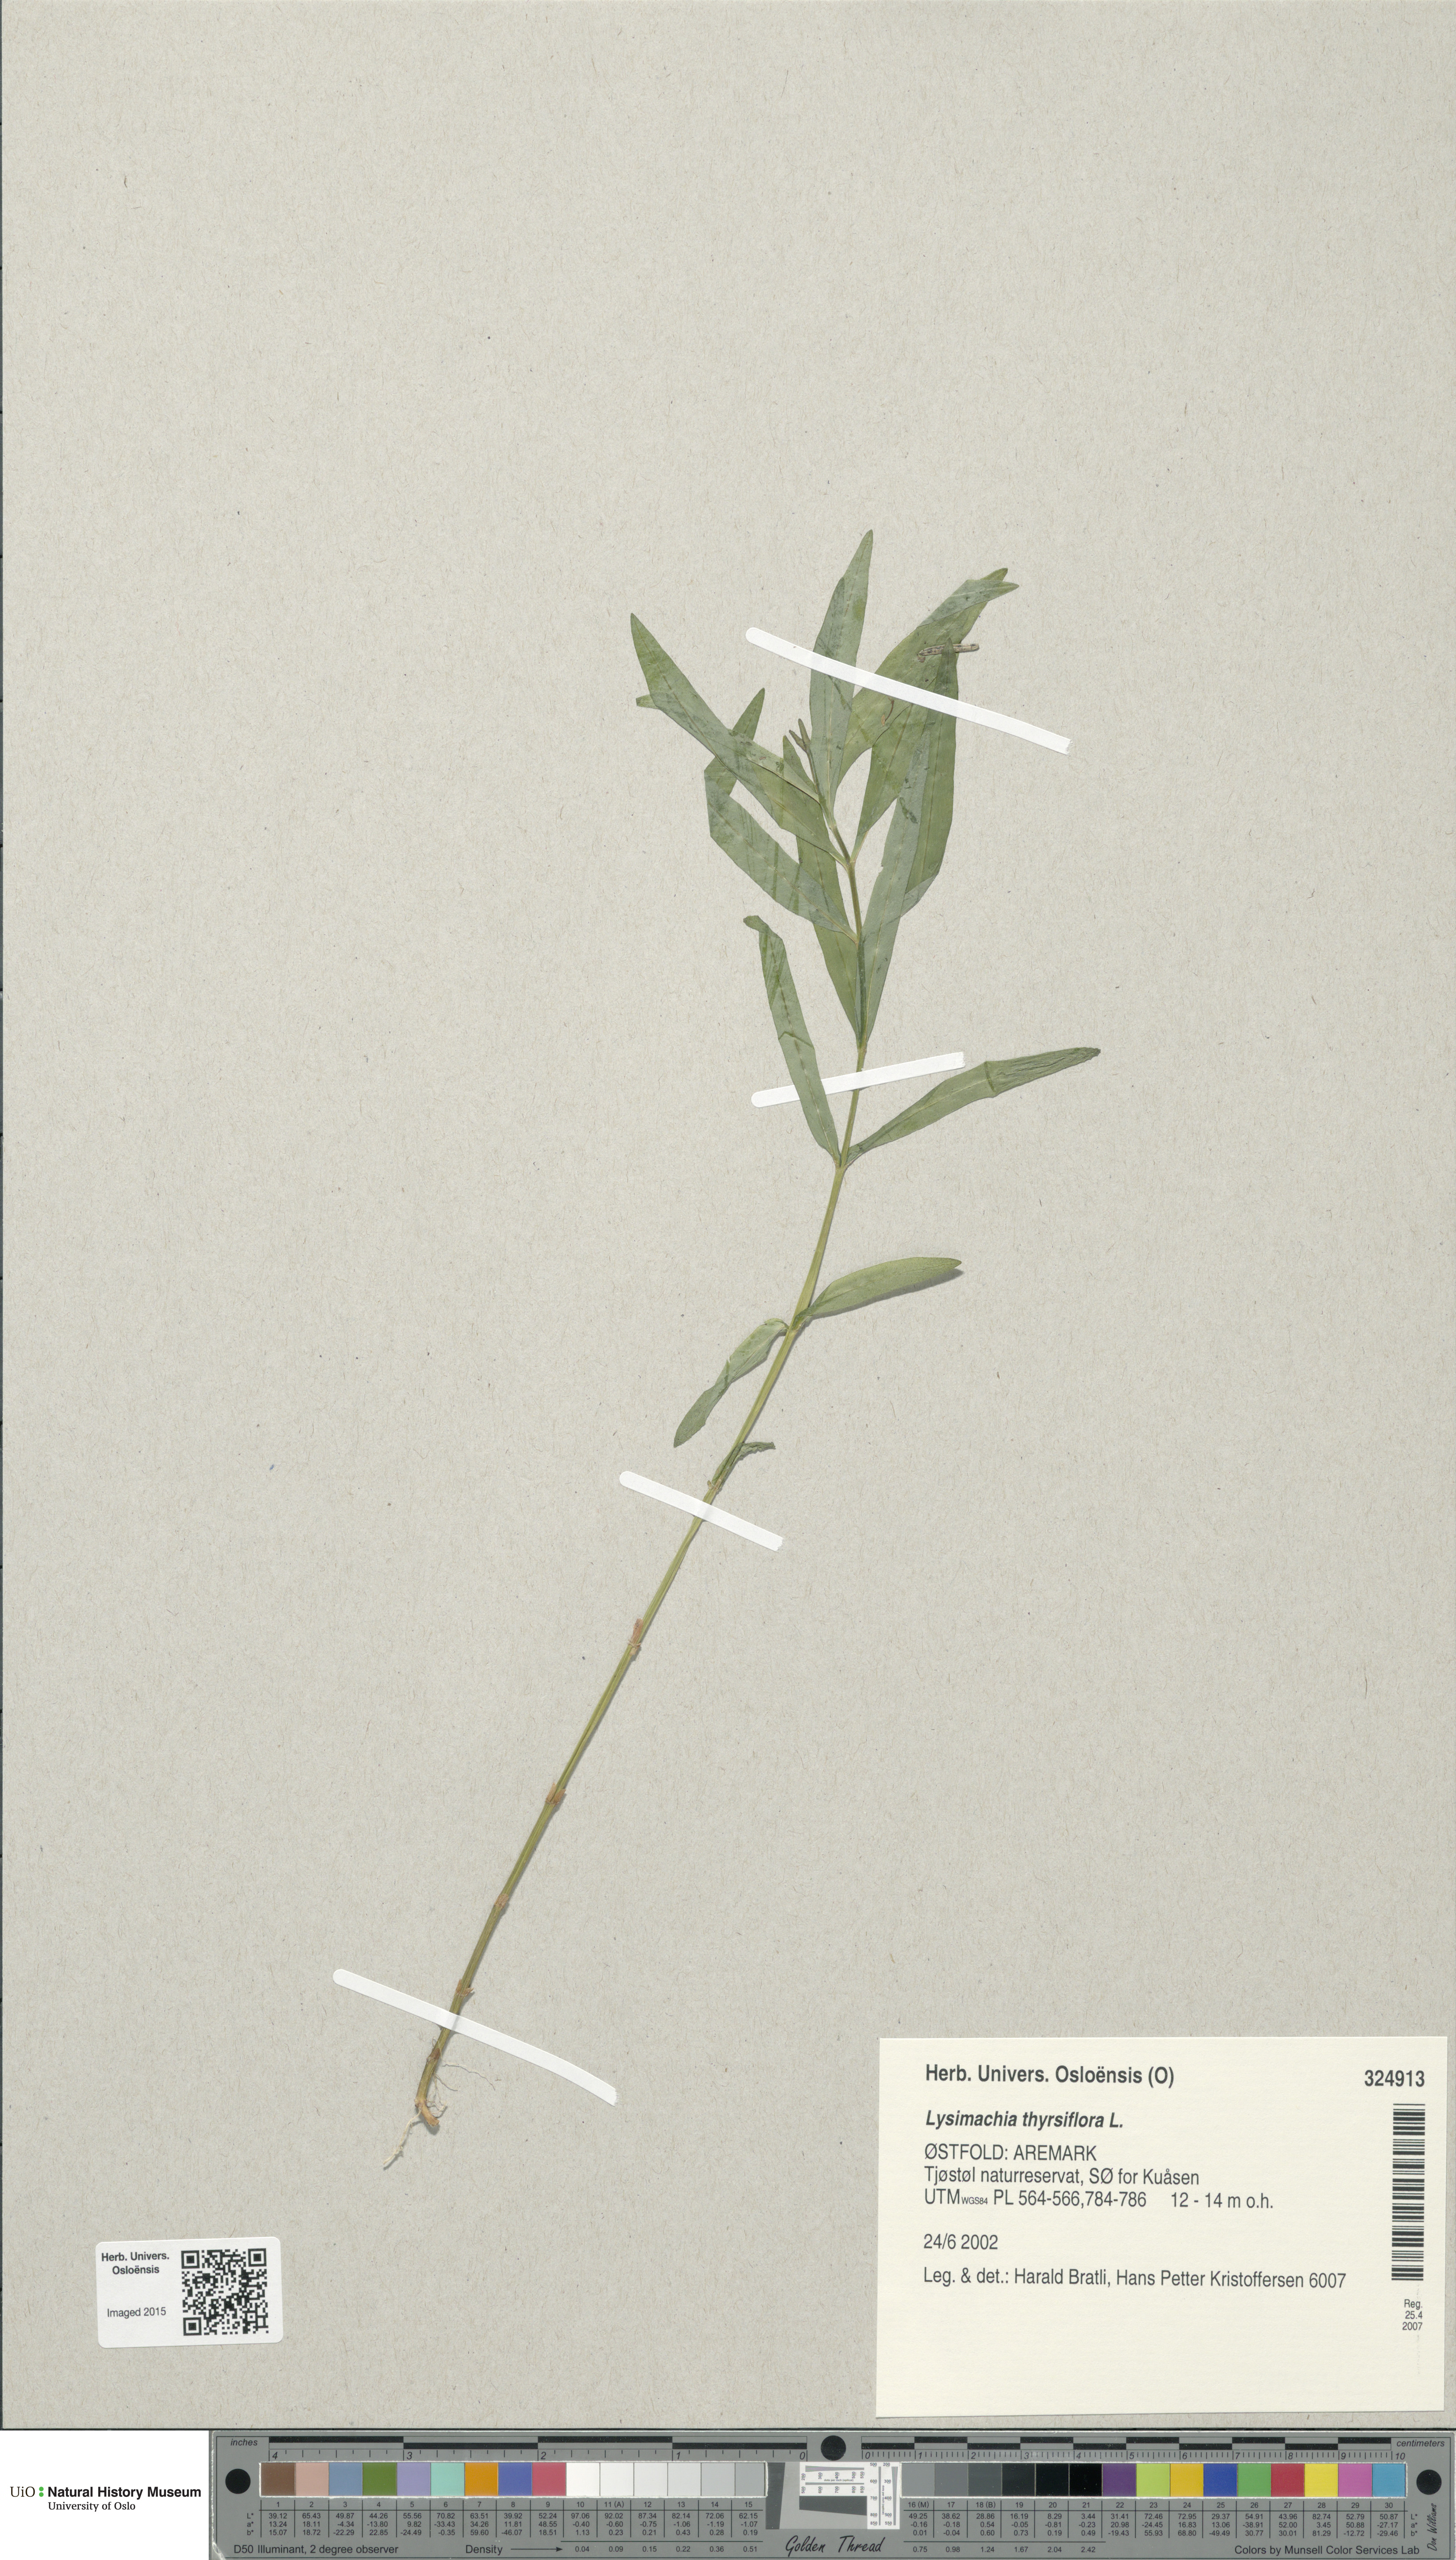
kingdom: Plantae
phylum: Tracheophyta
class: Magnoliopsida
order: Ericales
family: Primulaceae
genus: Lysimachia
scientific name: Lysimachia thyrsiflora
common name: Tufted loosestrife
